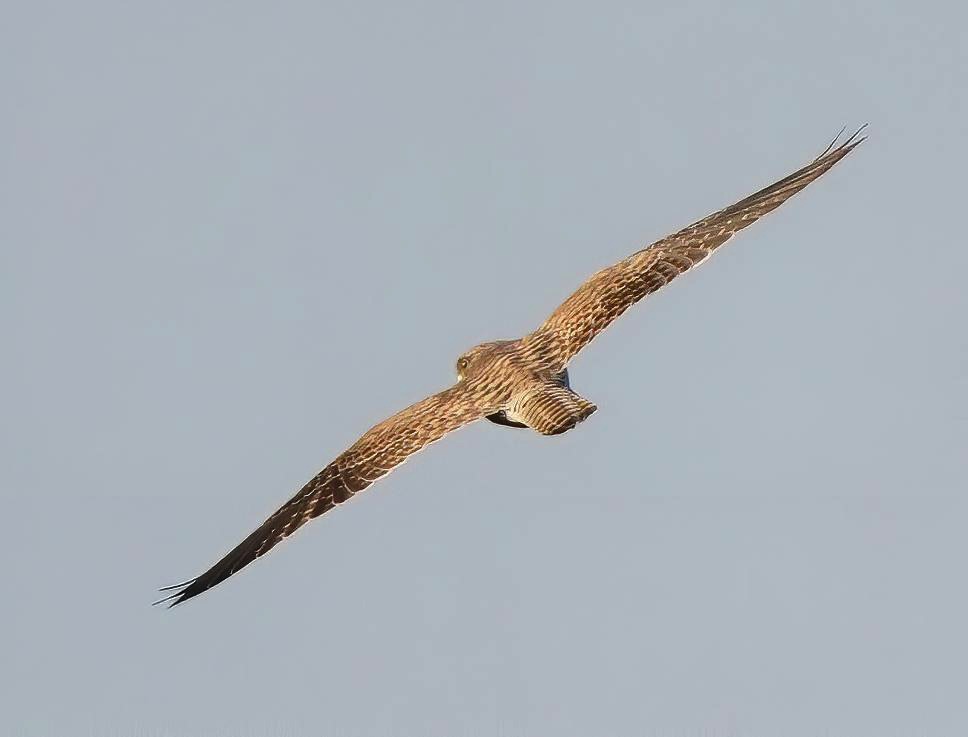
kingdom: Animalia
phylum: Chordata
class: Aves
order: Falconiformes
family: Falconidae
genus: Falco
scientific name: Falco tinnunculus
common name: Tårnfalk
